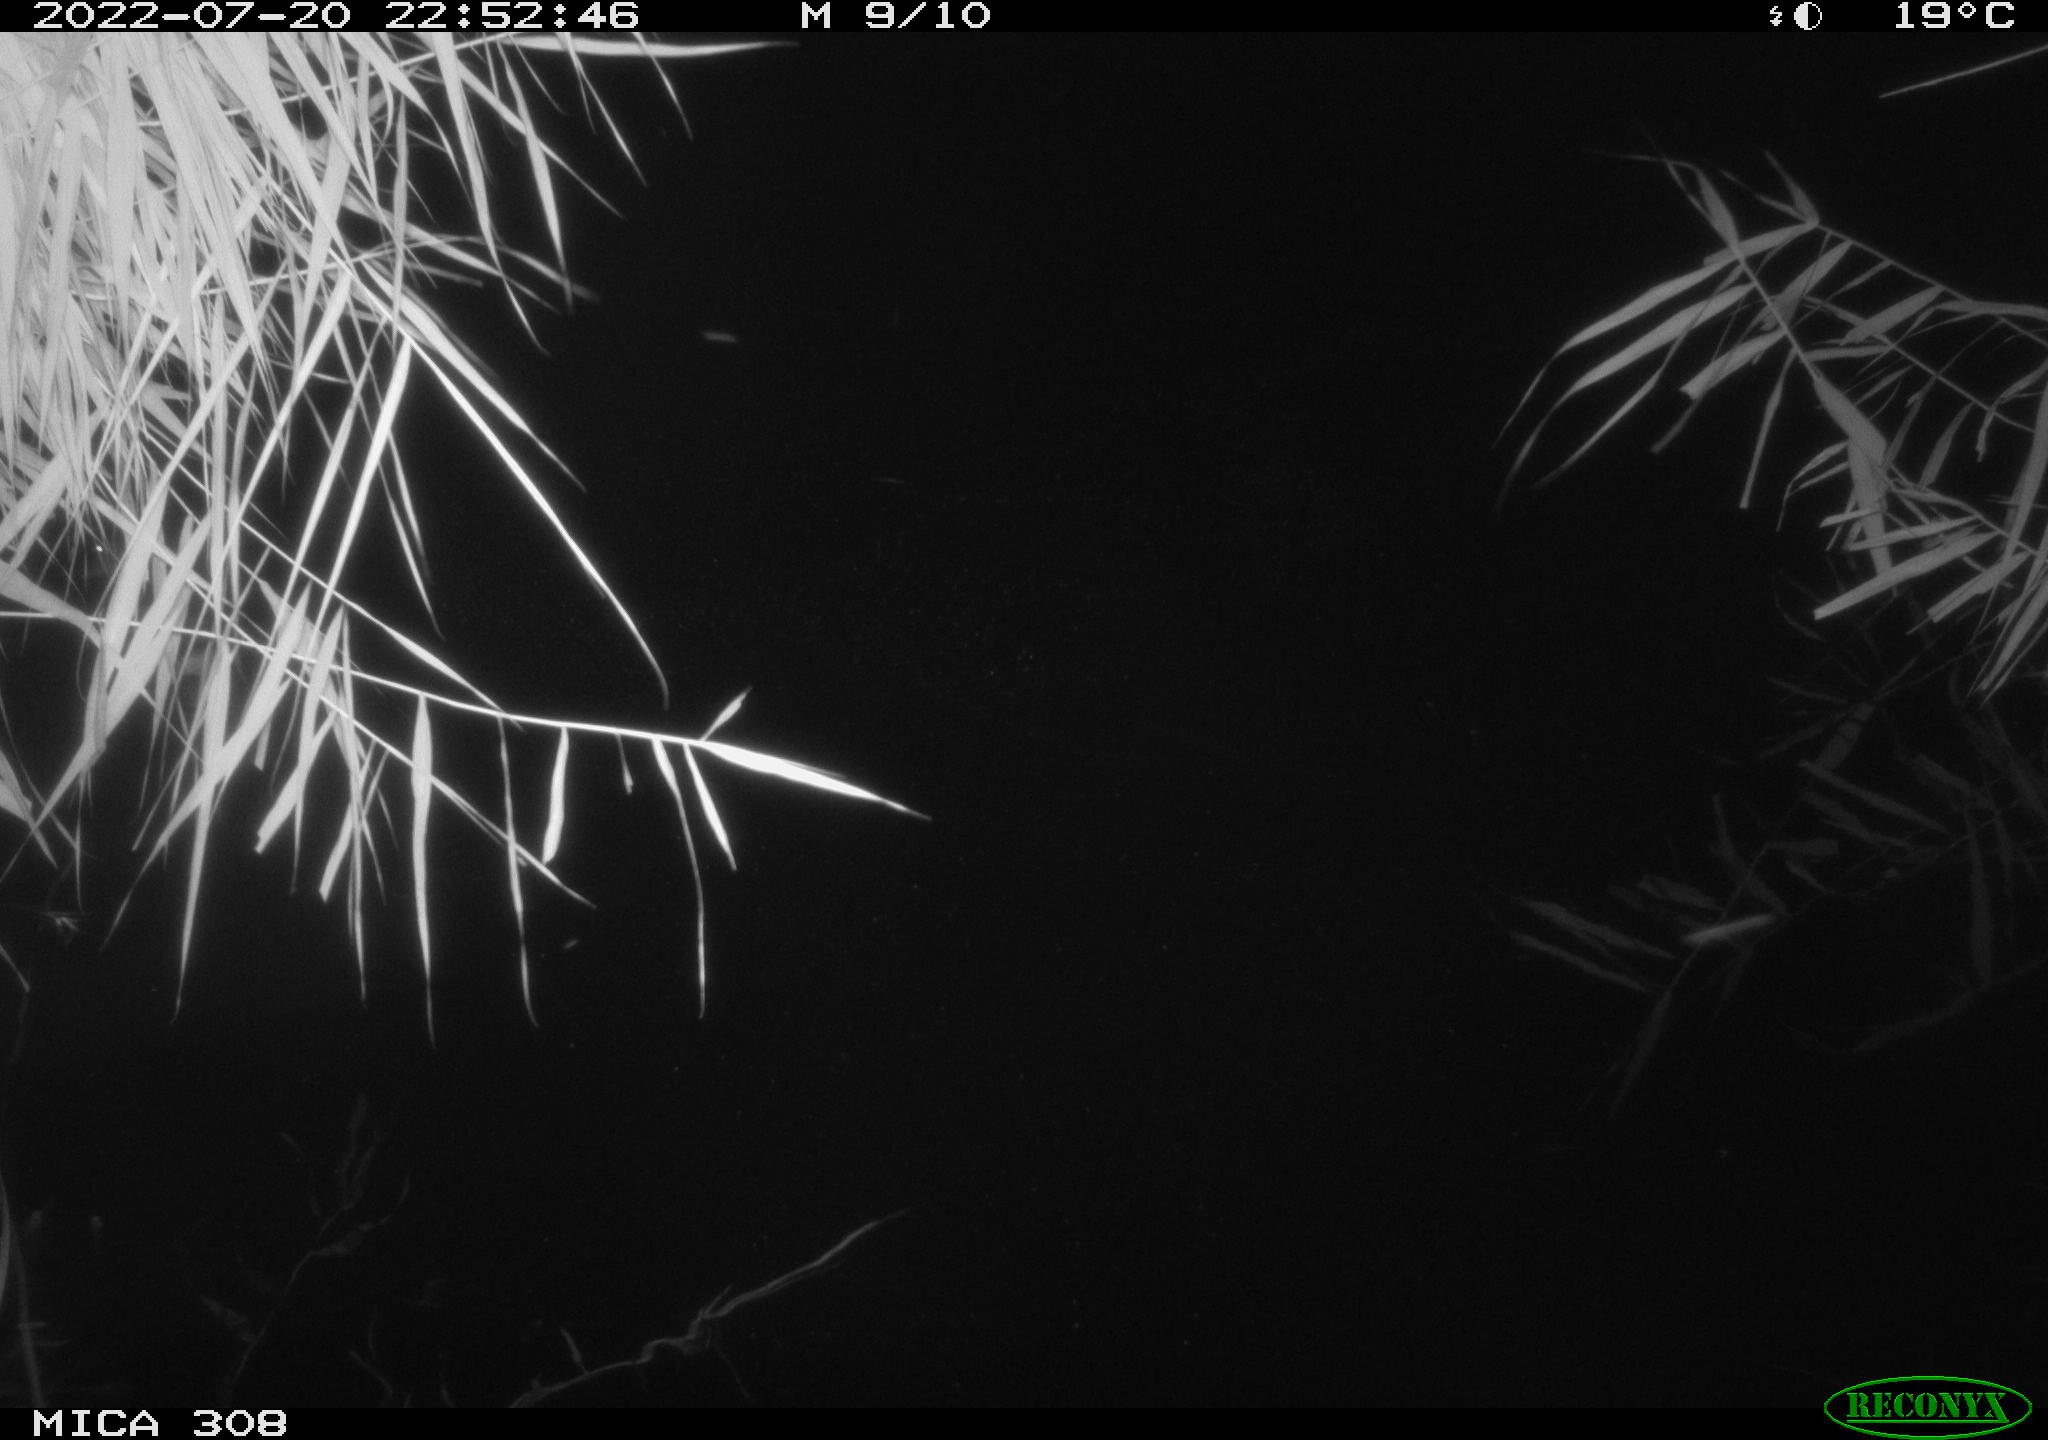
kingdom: Animalia
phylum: Chordata
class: Aves
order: Anseriformes
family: Anatidae
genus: Anas
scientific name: Anas platyrhynchos
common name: Mallard
